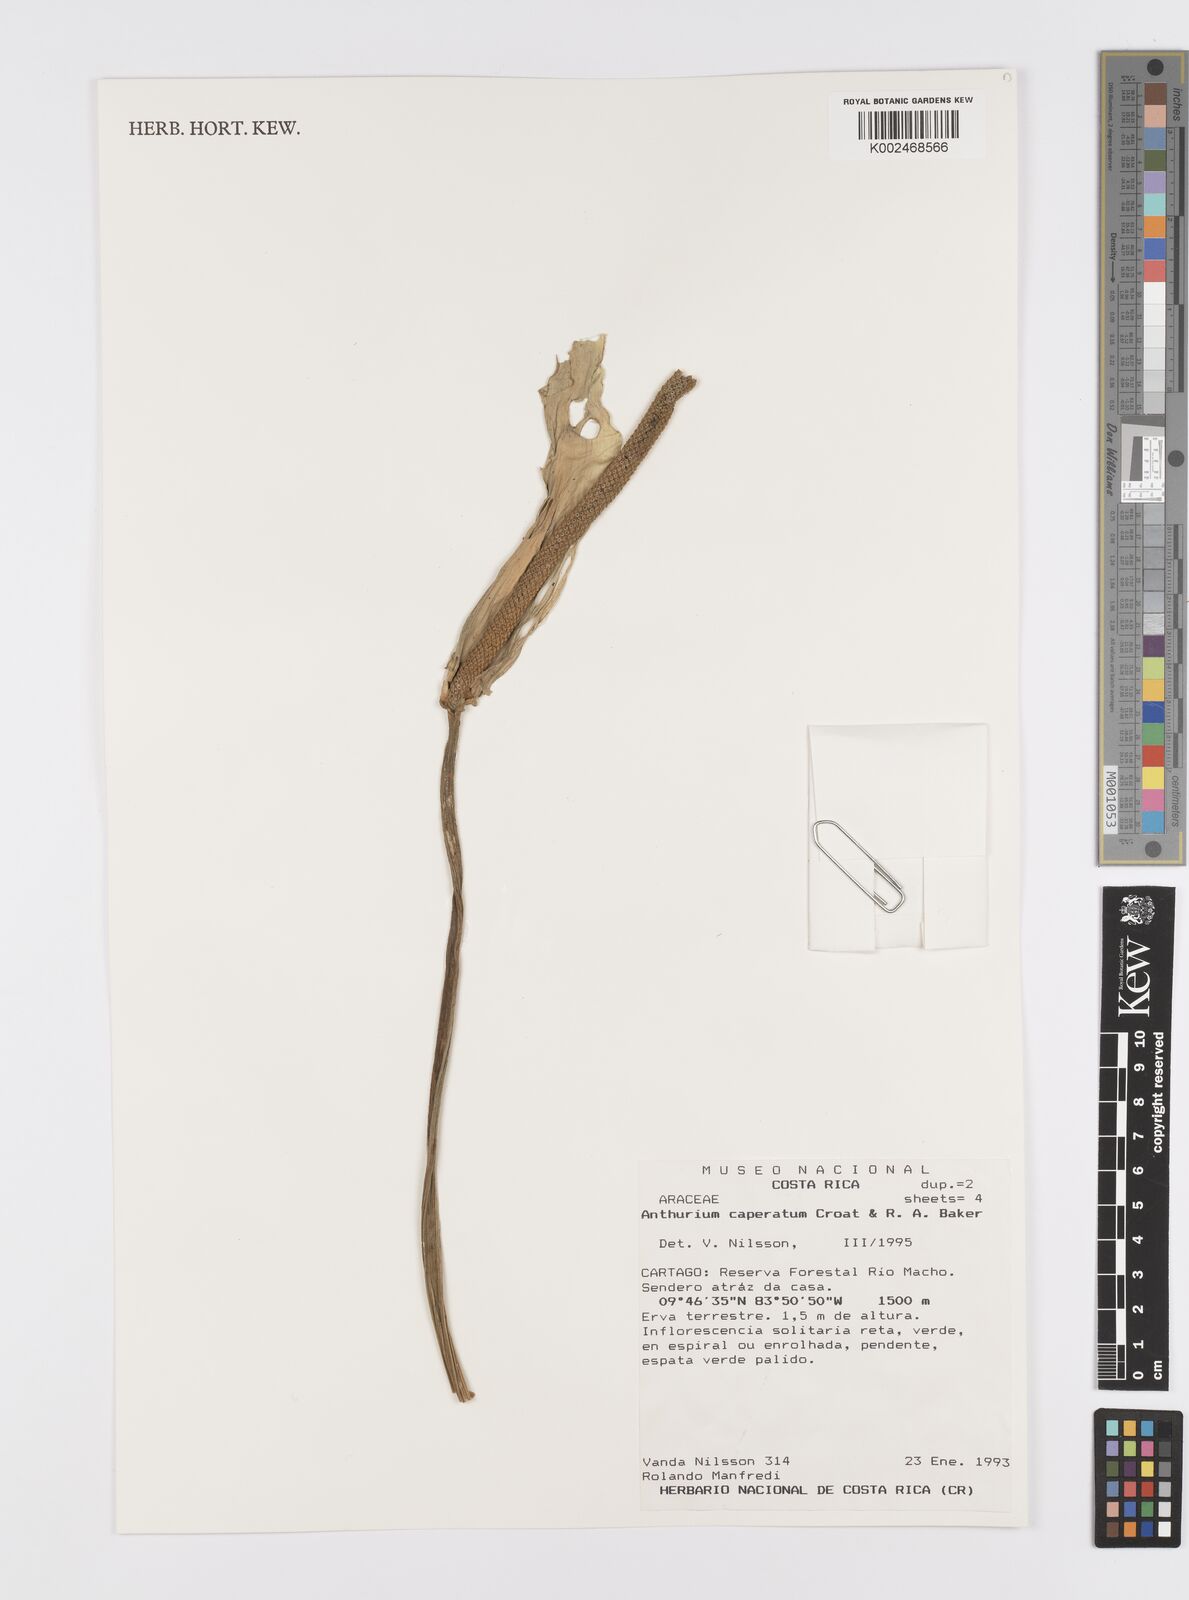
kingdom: Plantae
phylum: Tracheophyta
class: Liliopsida
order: Alismatales
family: Araceae
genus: Anthurium
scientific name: Anthurium caperatum
